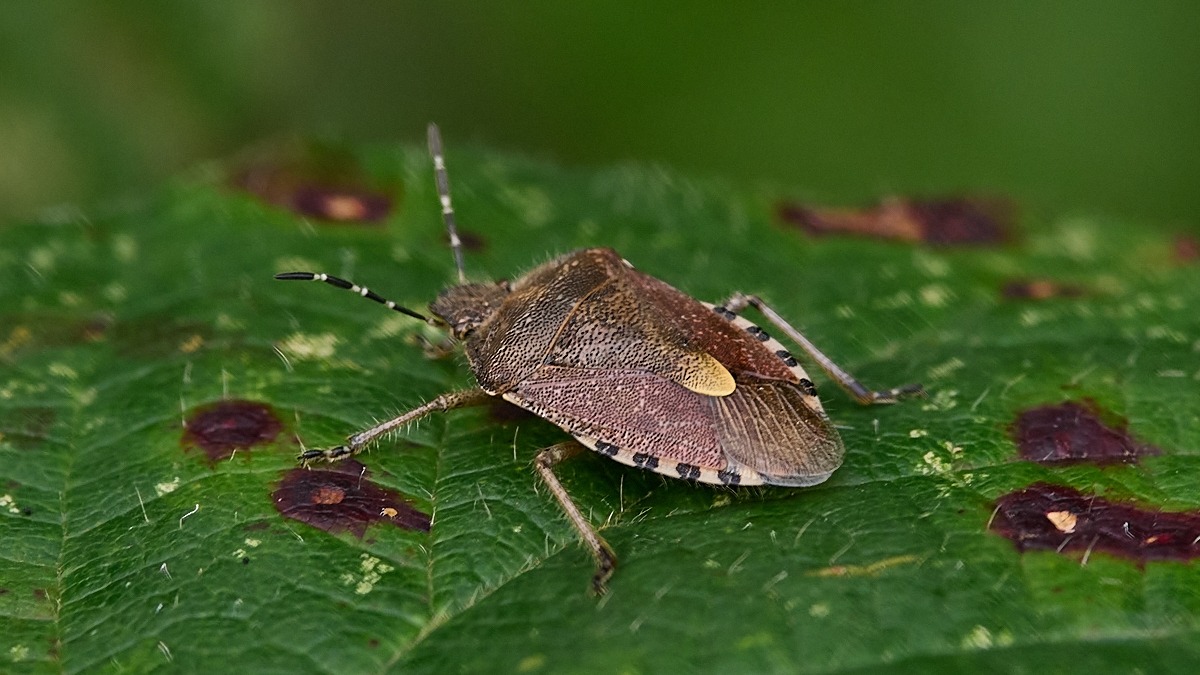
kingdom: Animalia
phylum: Arthropoda
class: Insecta
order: Hemiptera
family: Pentatomidae
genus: Dolycoris
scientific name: Dolycoris baccarum
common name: Almindelig bærtæge
